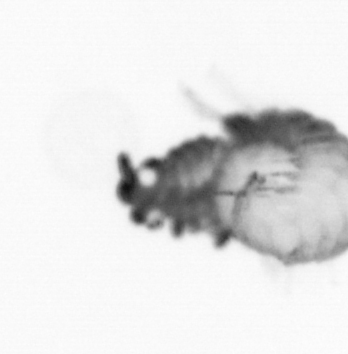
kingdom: Animalia
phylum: Annelida
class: Polychaeta
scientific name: Polychaeta
